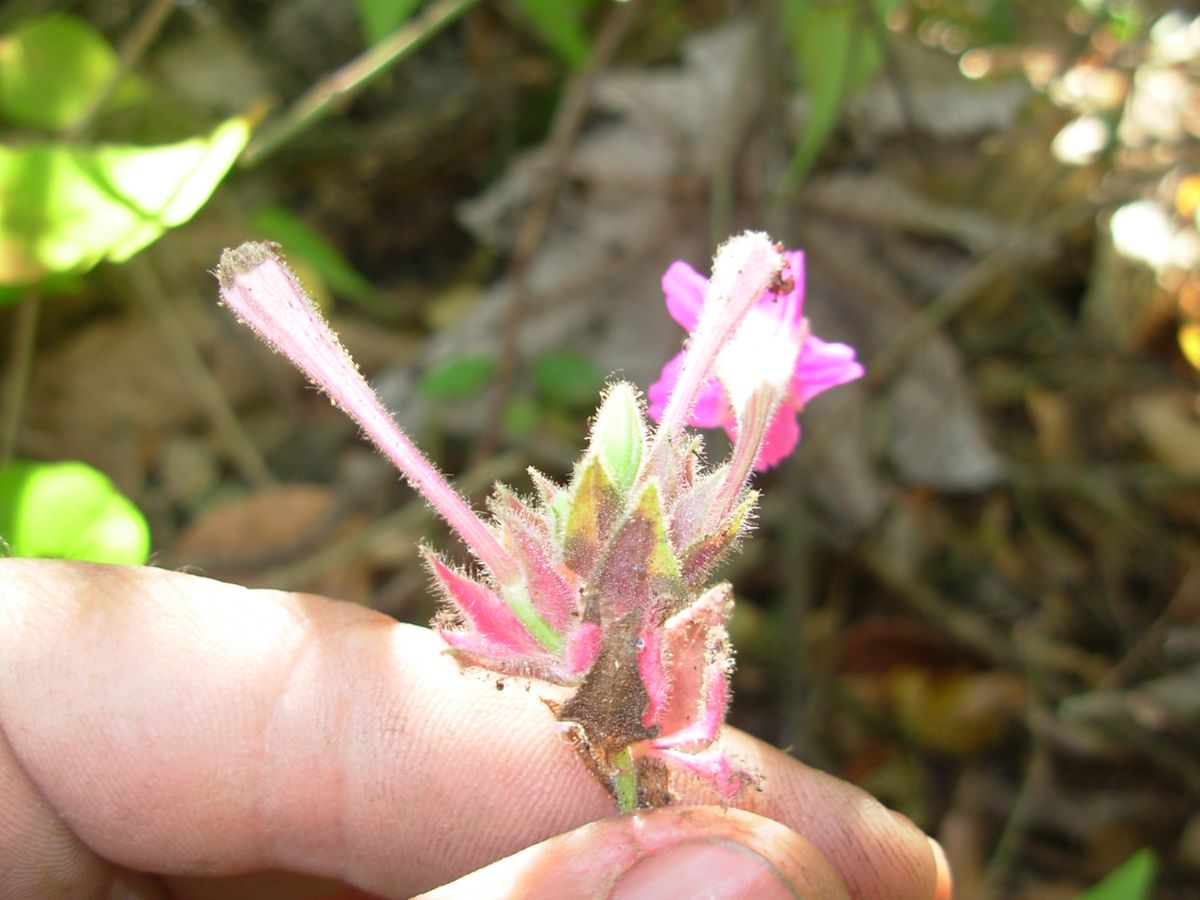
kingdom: Plantae
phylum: Tracheophyta
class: Magnoliopsida
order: Caryophyllales
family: Nyctaginaceae
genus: Cuscatlania
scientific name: Cuscatlania vulcanicola
